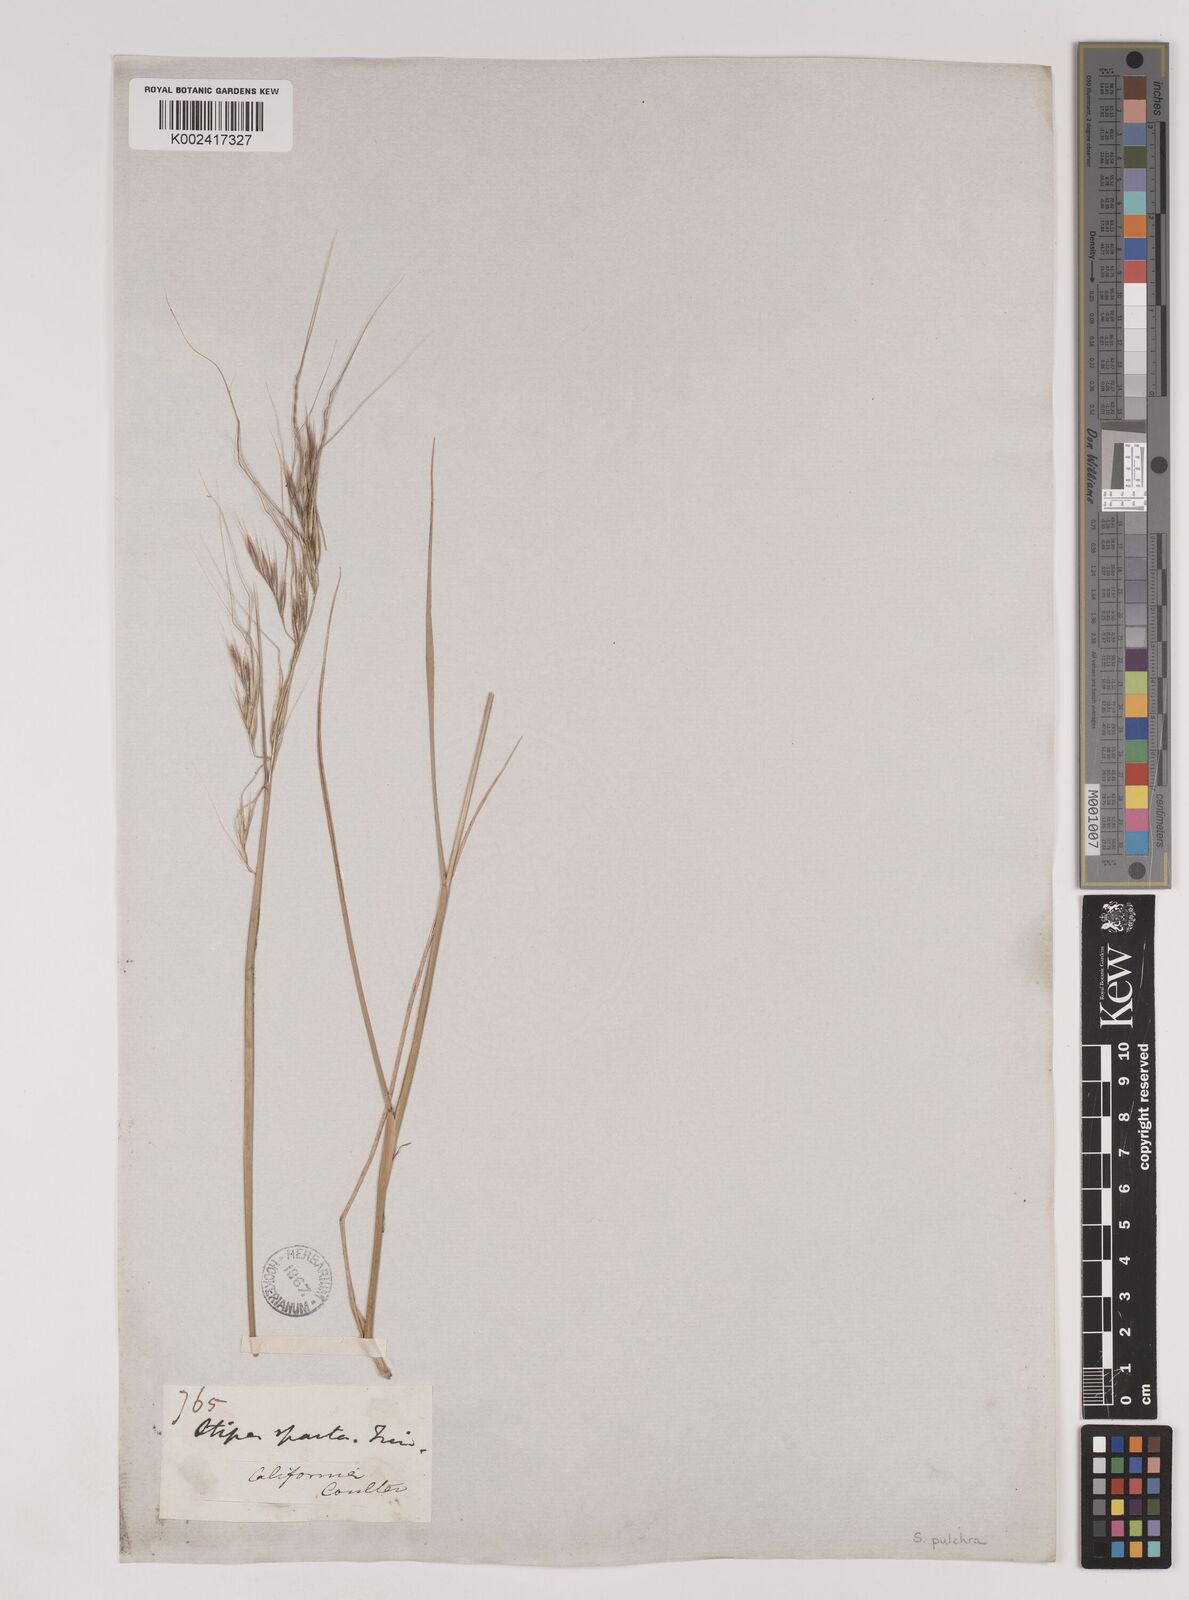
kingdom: Plantae
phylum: Tracheophyta
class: Liliopsida
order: Poales
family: Poaceae
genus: Nassella
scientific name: Nassella pulchra
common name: Purple needlegrass
